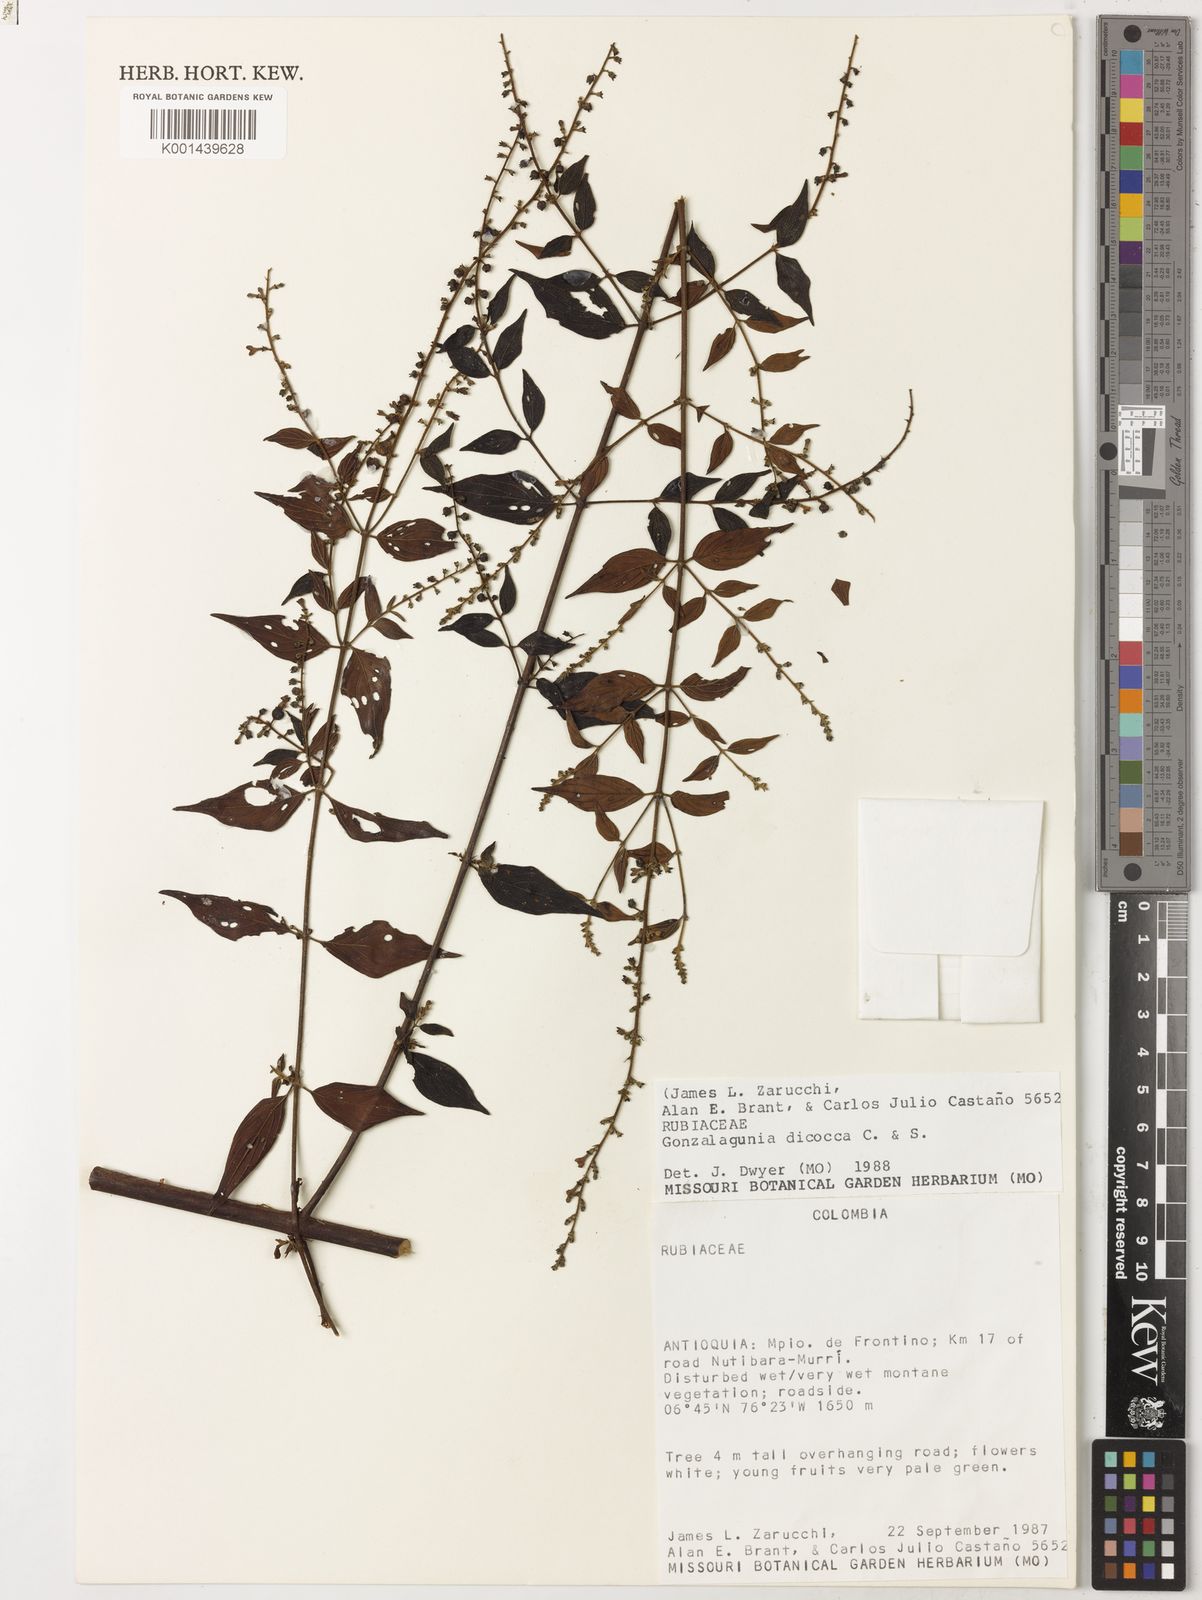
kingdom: Plantae
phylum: Tracheophyta
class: Magnoliopsida
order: Gentianales
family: Rubiaceae
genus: Gonzalagunia
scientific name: Gonzalagunia dicocca
